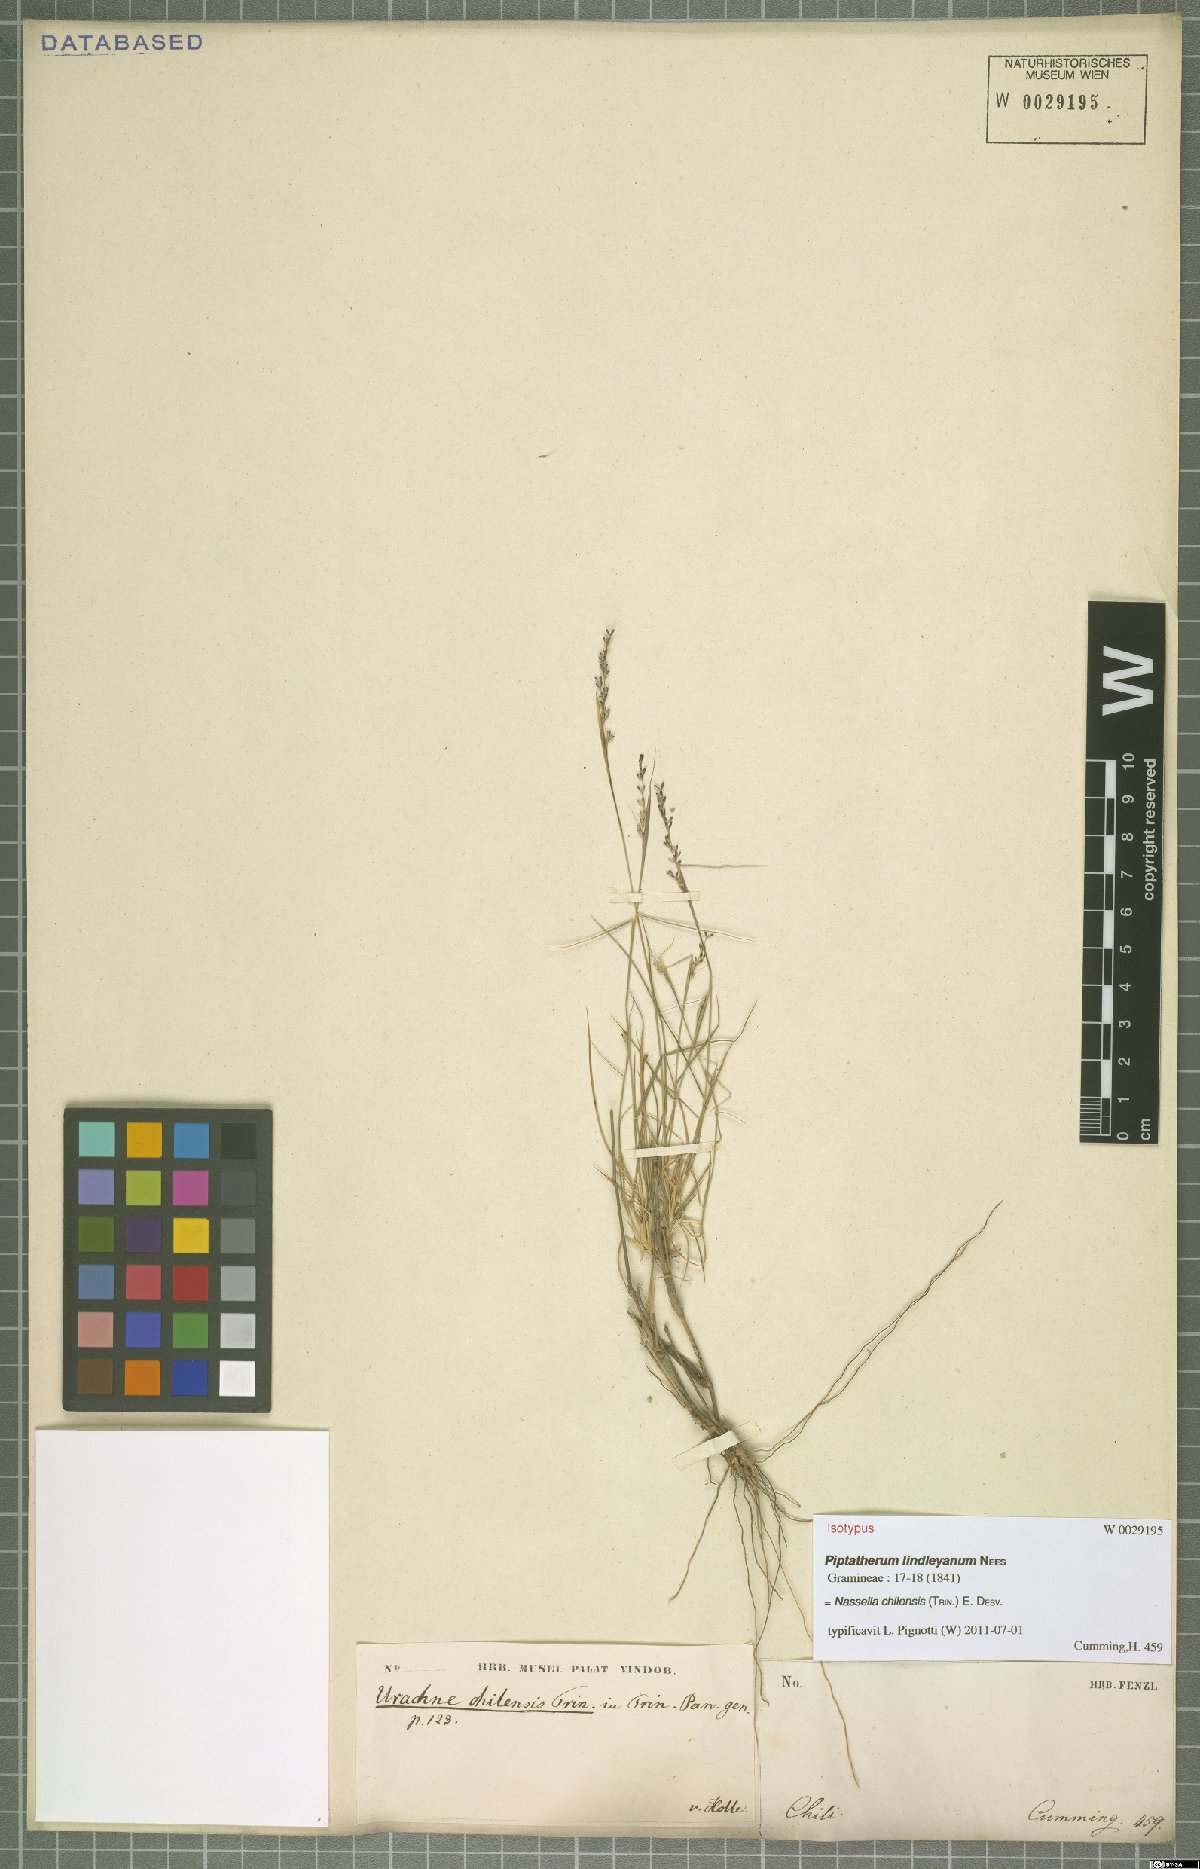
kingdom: Plantae
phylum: Tracheophyta
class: Liliopsida
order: Poales
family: Poaceae
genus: Nassella
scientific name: Nassella chilensis
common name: Chilean needlegrass
